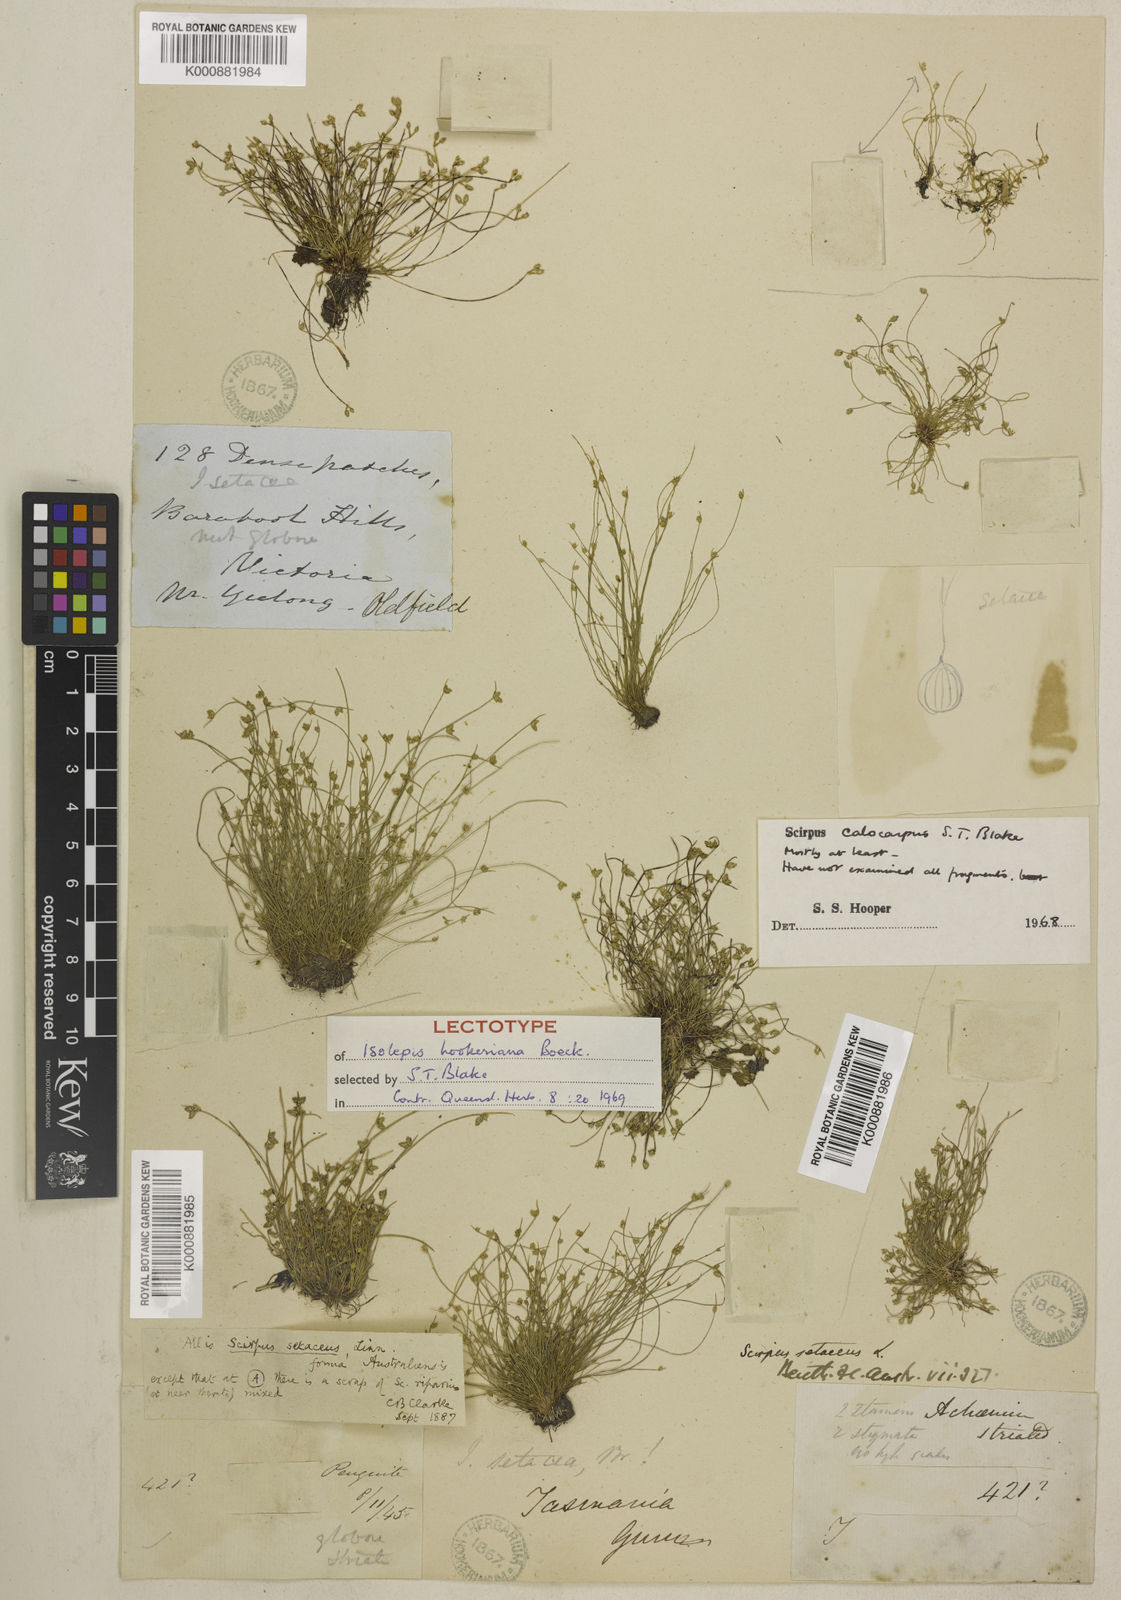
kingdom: Plantae
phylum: Tracheophyta
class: Liliopsida
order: Poales
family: Cyperaceae
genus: Isolepis
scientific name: Isolepis multicaulis
